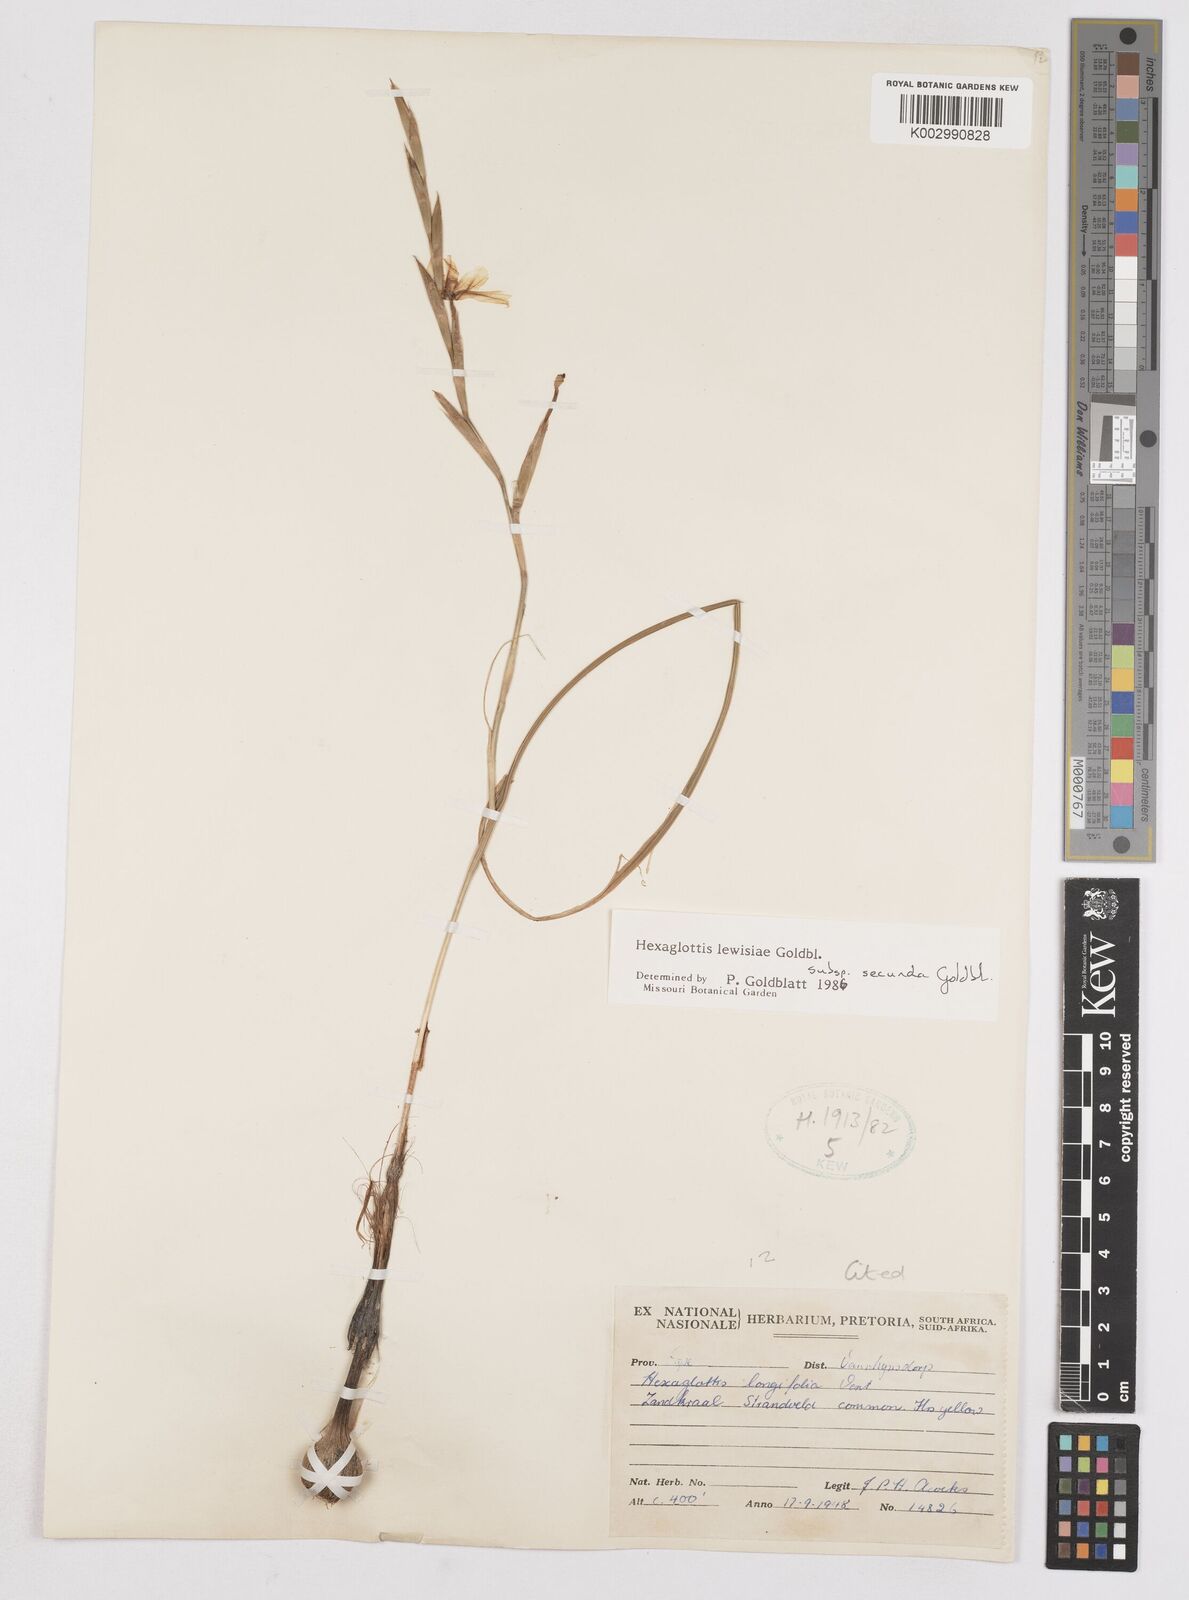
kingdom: Plantae
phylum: Tracheophyta
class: Liliopsida
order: Asparagales
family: Iridaceae
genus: Moraea
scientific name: Moraea lewisiae
